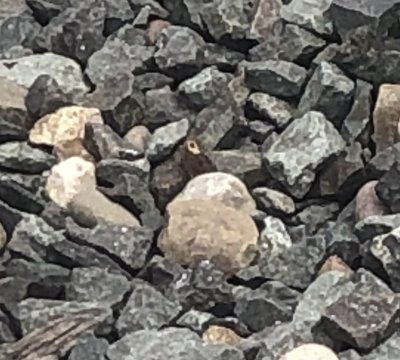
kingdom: Animalia
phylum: Arthropoda
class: Insecta
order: Lepidoptera
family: Nymphalidae
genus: Cercyonis
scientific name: Cercyonis pegala
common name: Common Wood-Nymph
